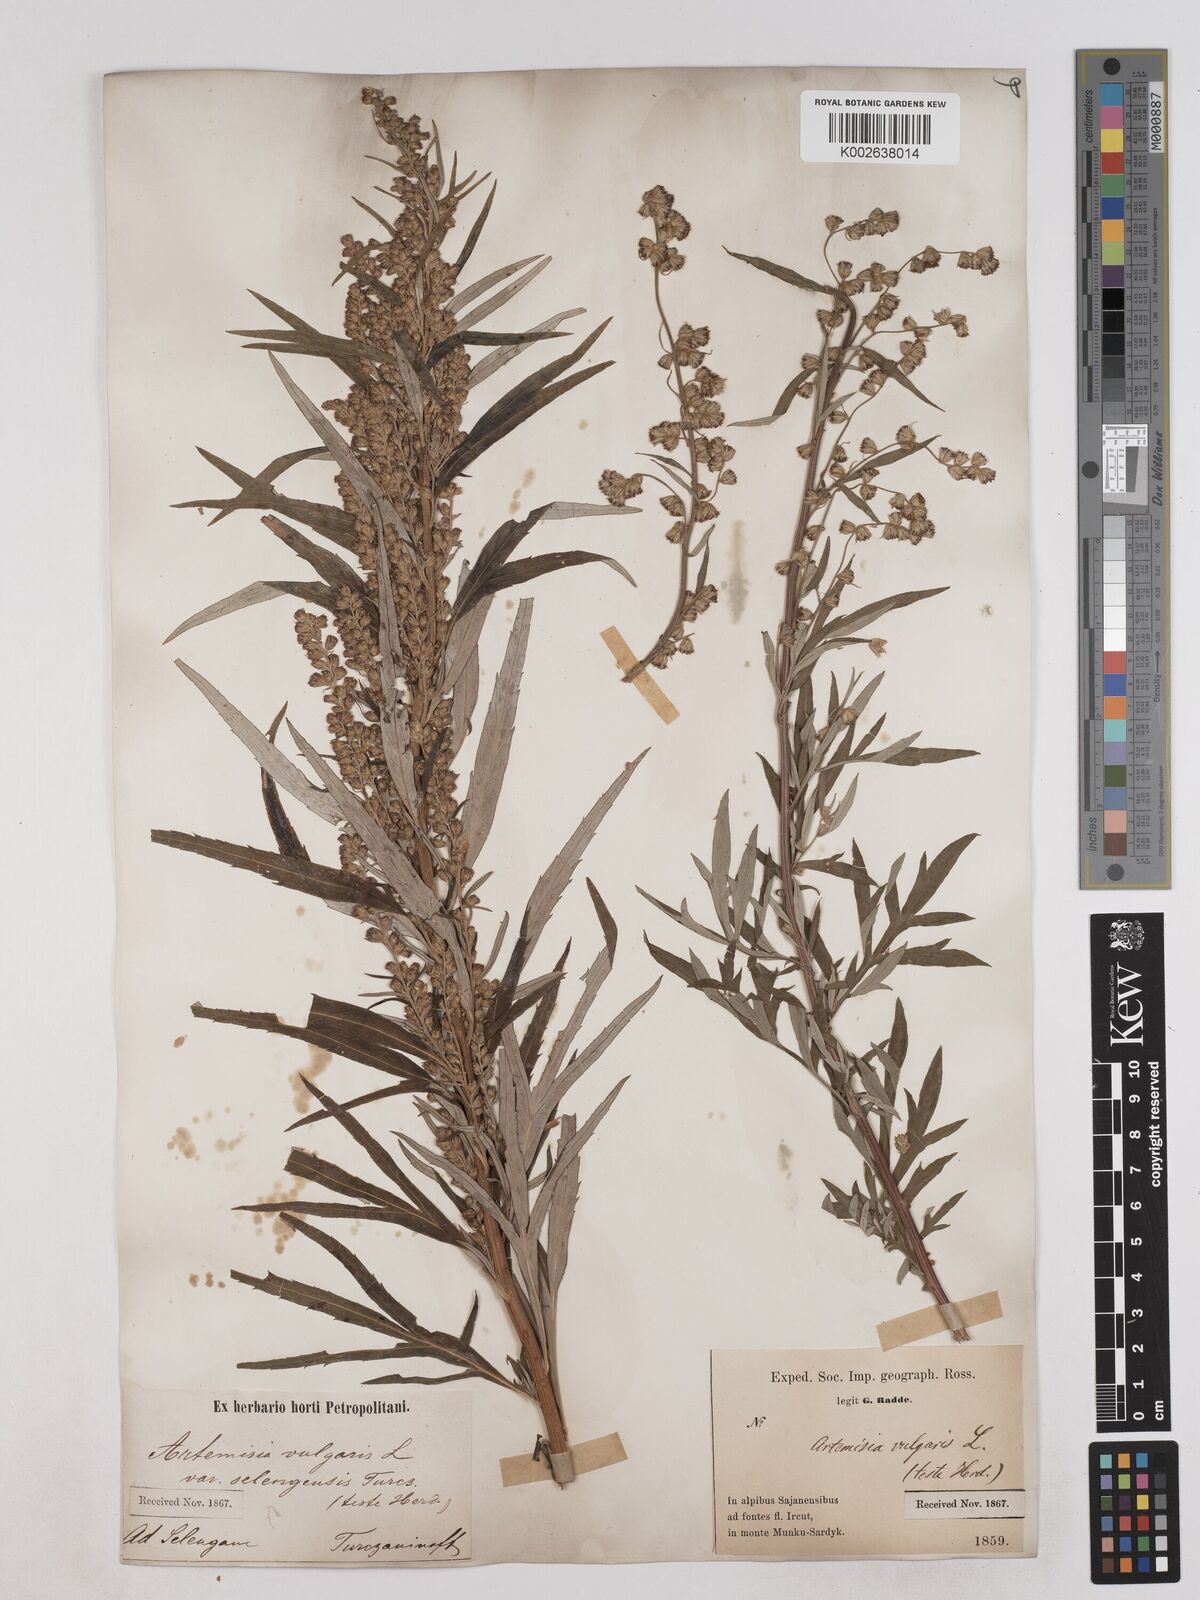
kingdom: Plantae
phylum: Tracheophyta
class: Magnoliopsida
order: Asterales
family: Asteraceae
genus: Artemisia
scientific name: Artemisia selengensis
